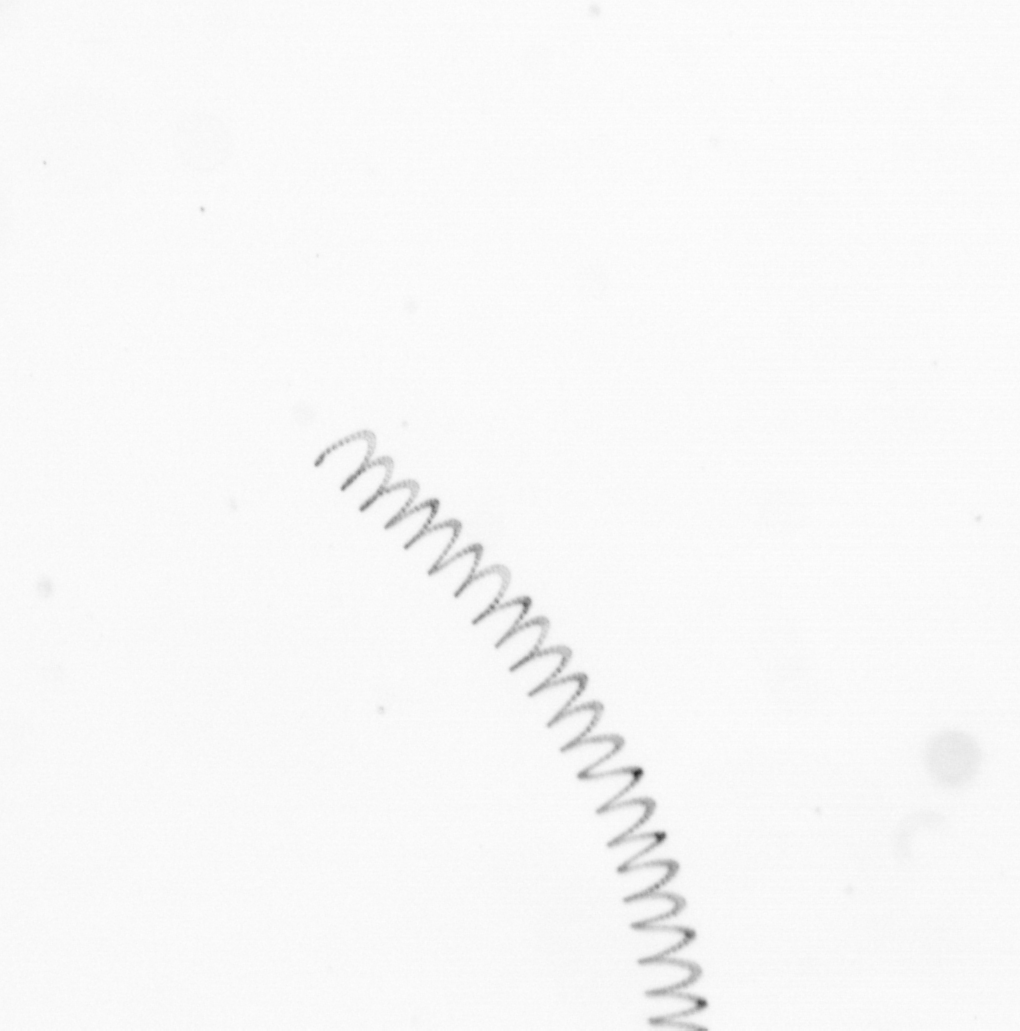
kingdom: Chromista
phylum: Ochrophyta
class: Bacillariophyceae
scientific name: Bacillariophyceae
